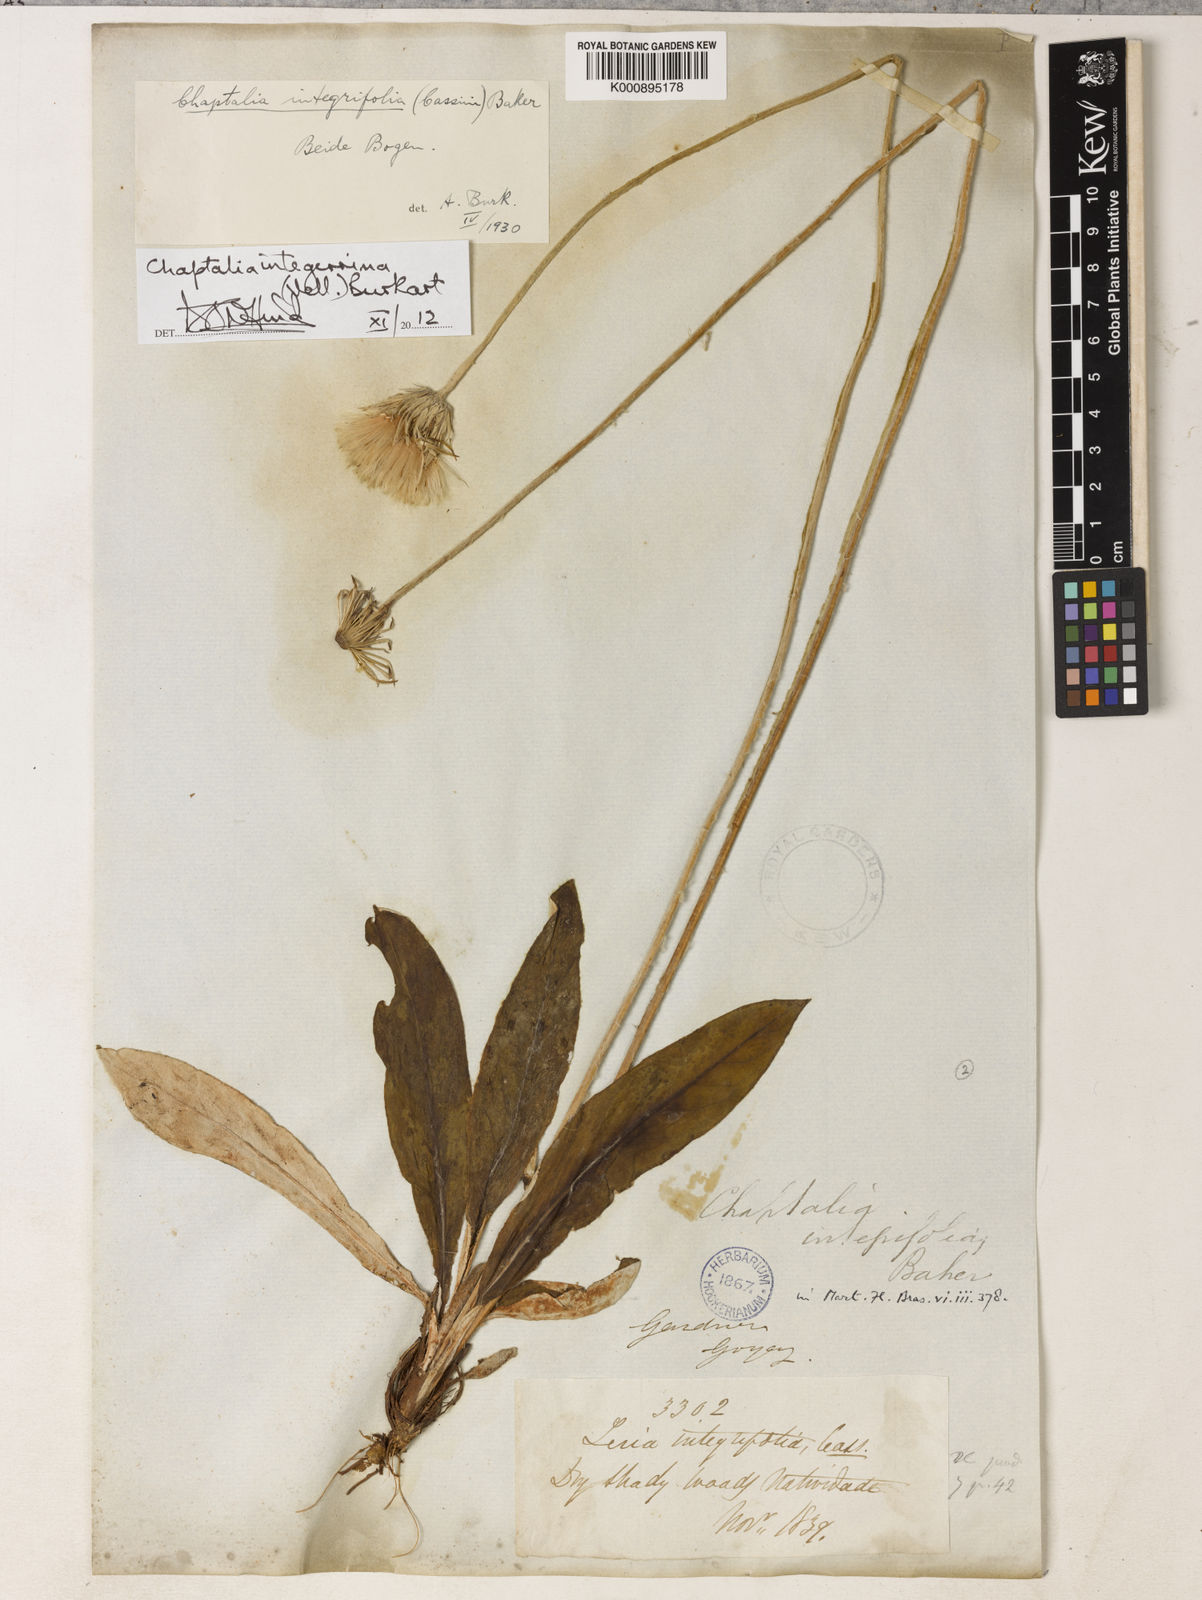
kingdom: Plantae
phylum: Tracheophyta
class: Magnoliopsida
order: Asterales
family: Asteraceae
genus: Chaptalia
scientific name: Chaptalia integerrima
